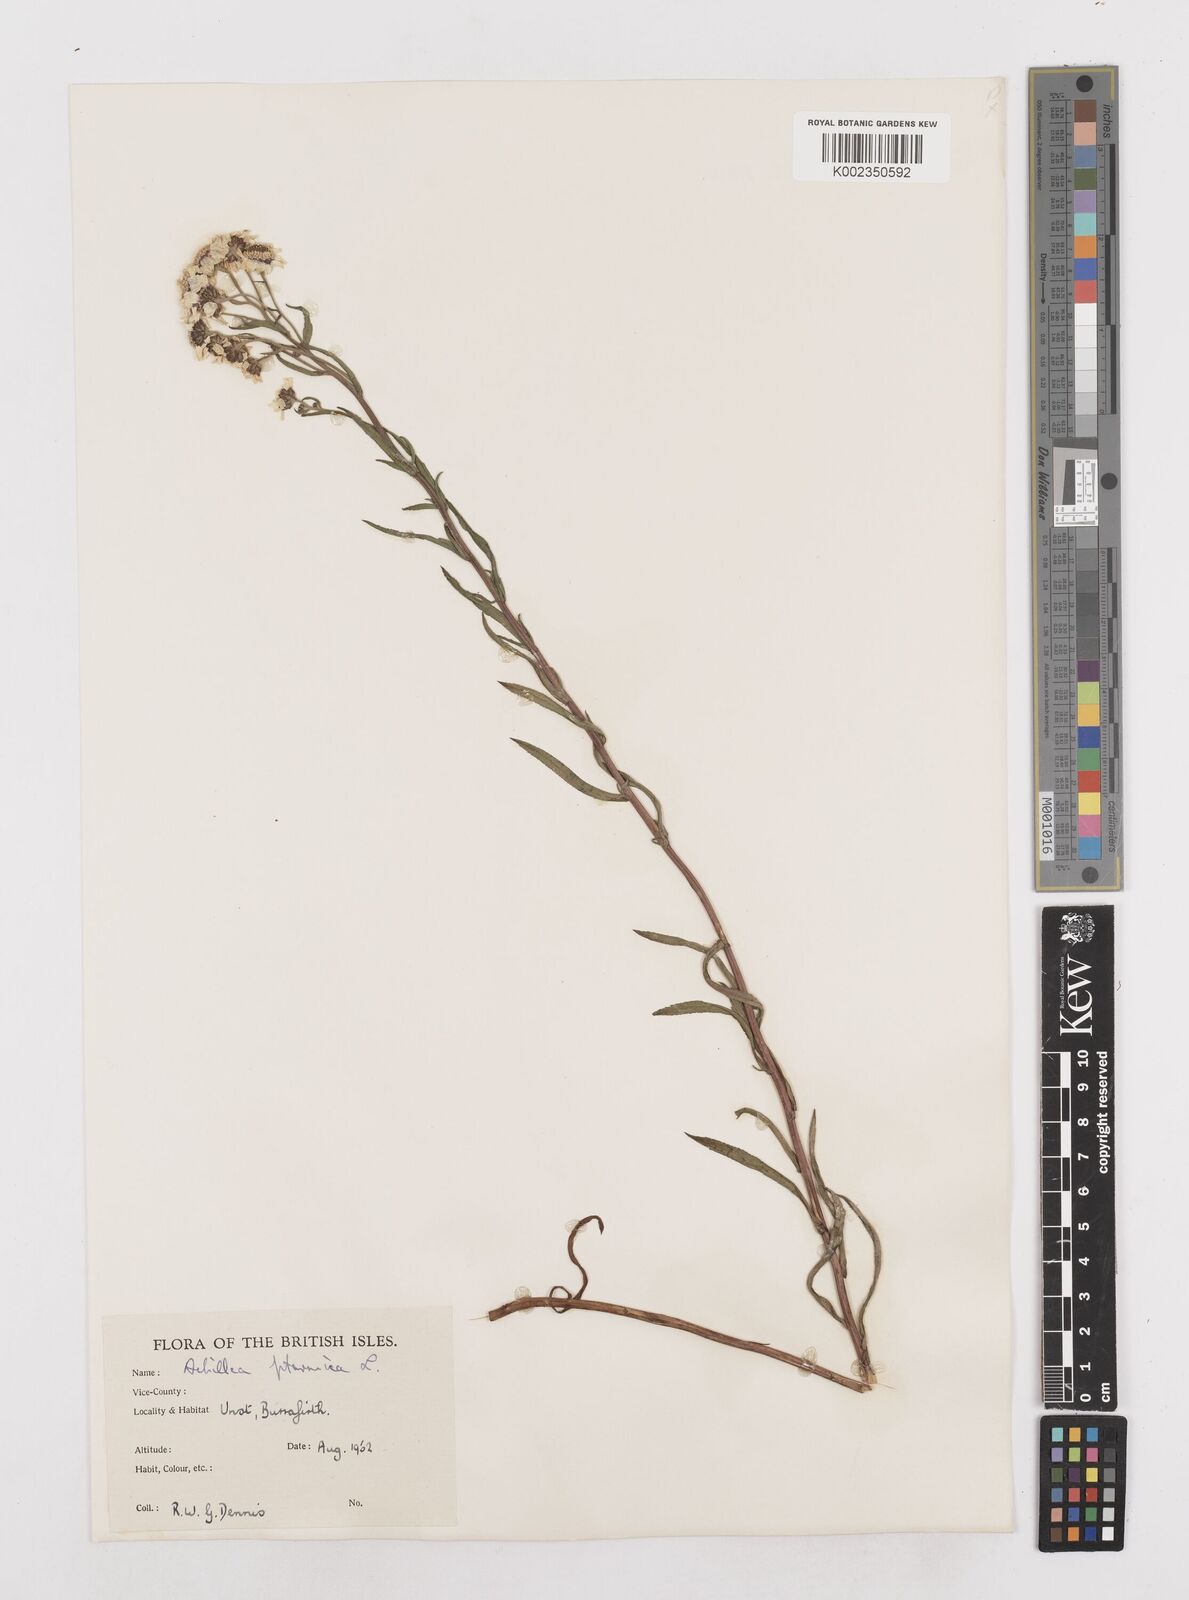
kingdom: Plantae
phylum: Tracheophyta
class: Magnoliopsida
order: Asterales
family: Asteraceae
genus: Achillea
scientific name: Achillea ptarmica
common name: Sneezeweed
